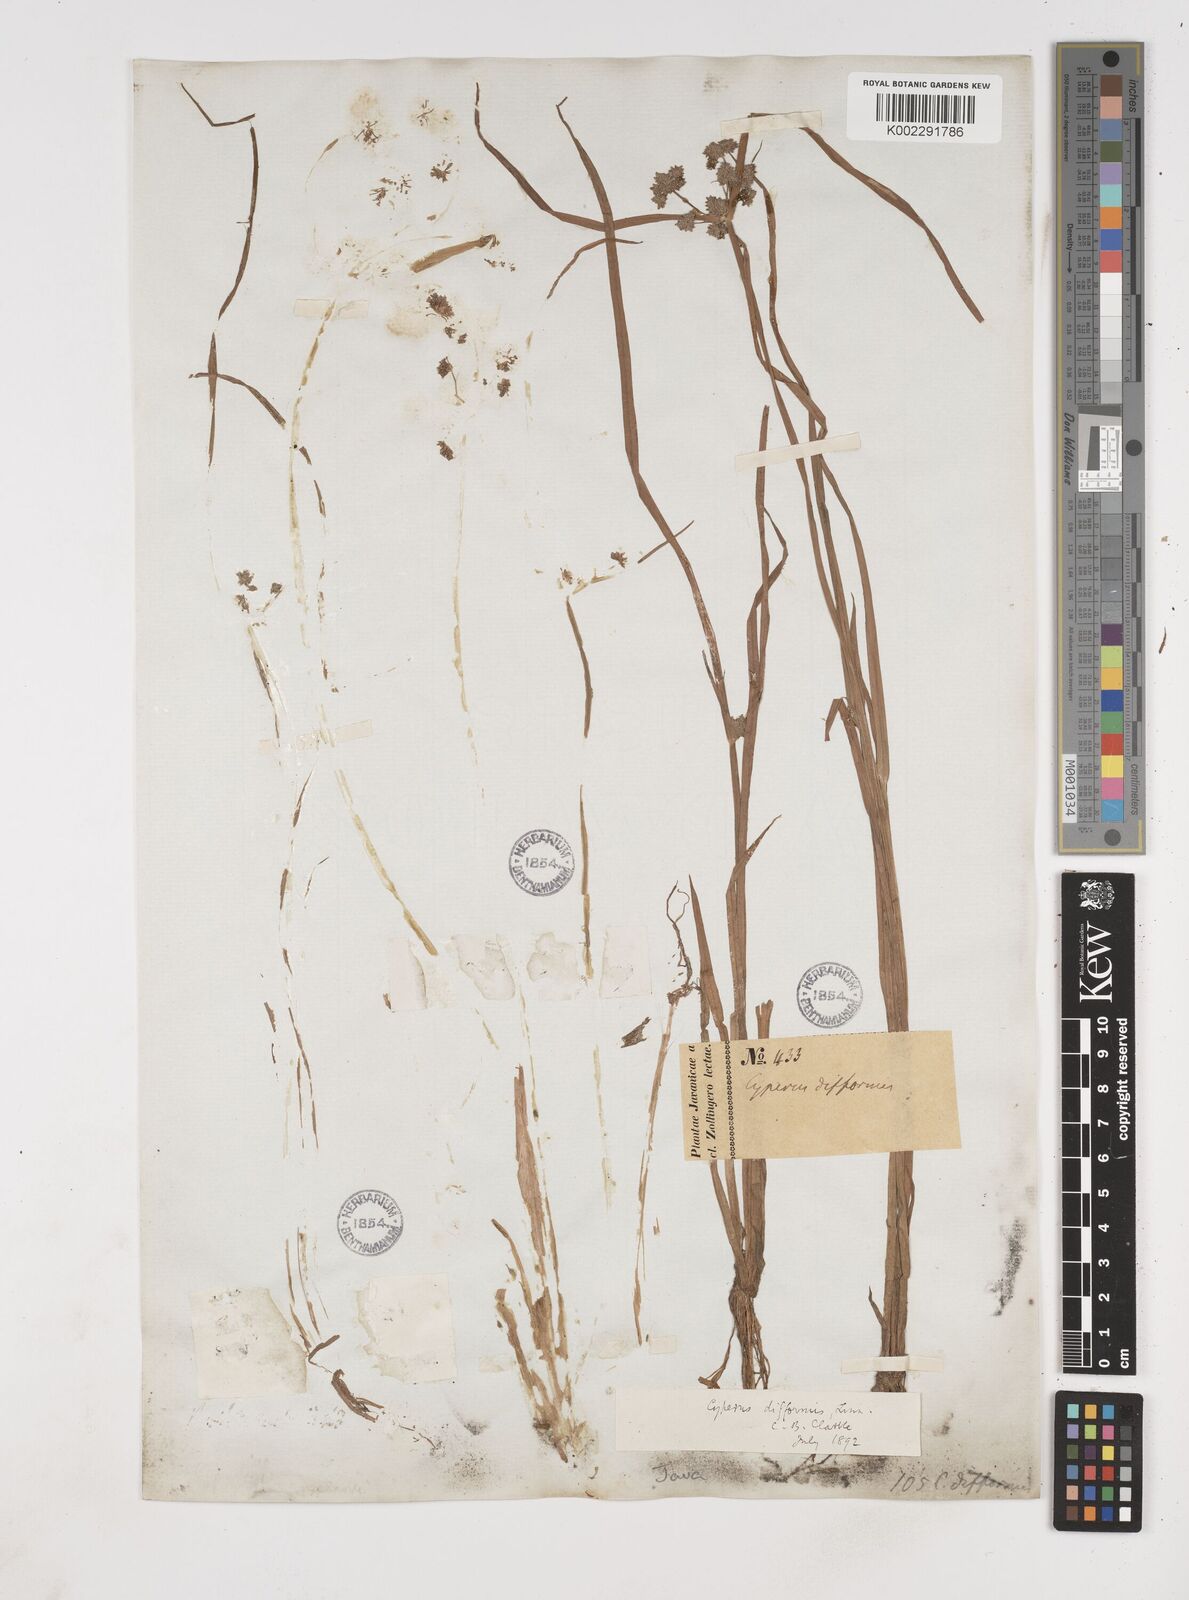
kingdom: Plantae
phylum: Tracheophyta
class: Liliopsida
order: Poales
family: Cyperaceae
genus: Cyperus
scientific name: Cyperus difformis
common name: Variable flatsedge
